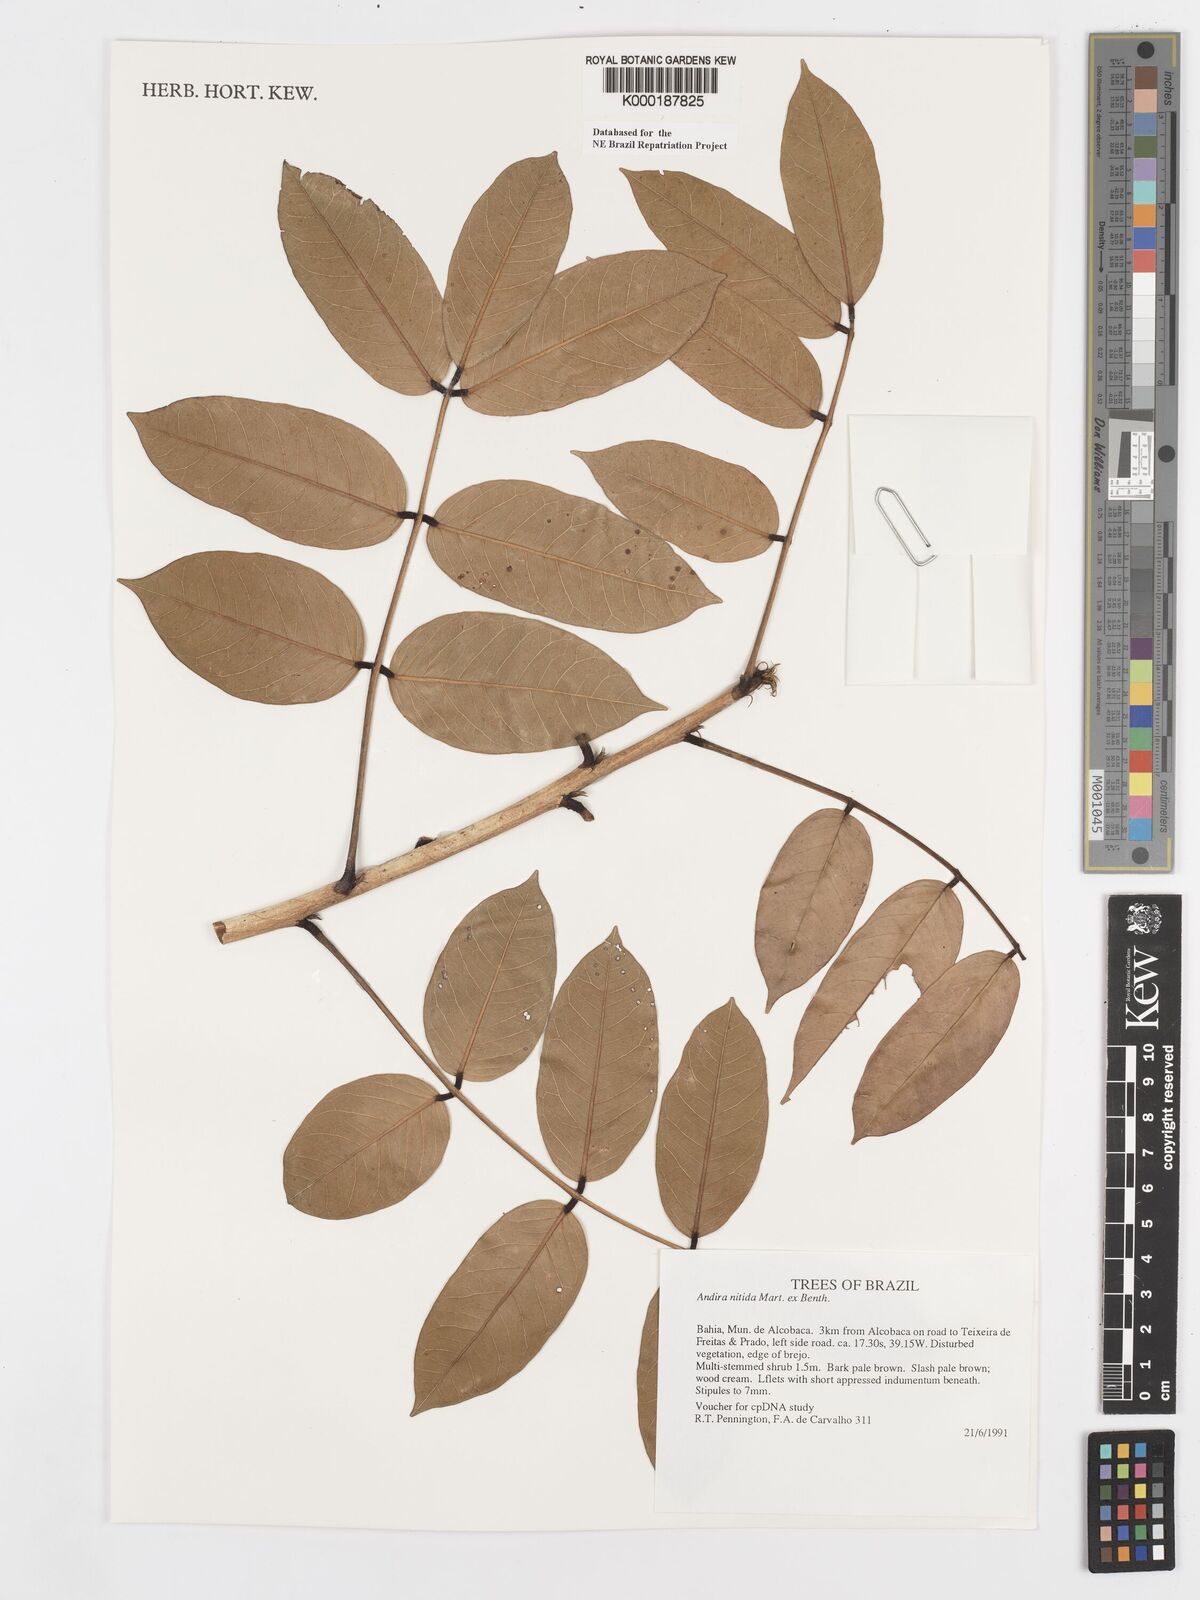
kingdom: Plantae
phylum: Tracheophyta
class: Magnoliopsida
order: Fabales
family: Fabaceae
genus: Andira
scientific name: Andira nitida
